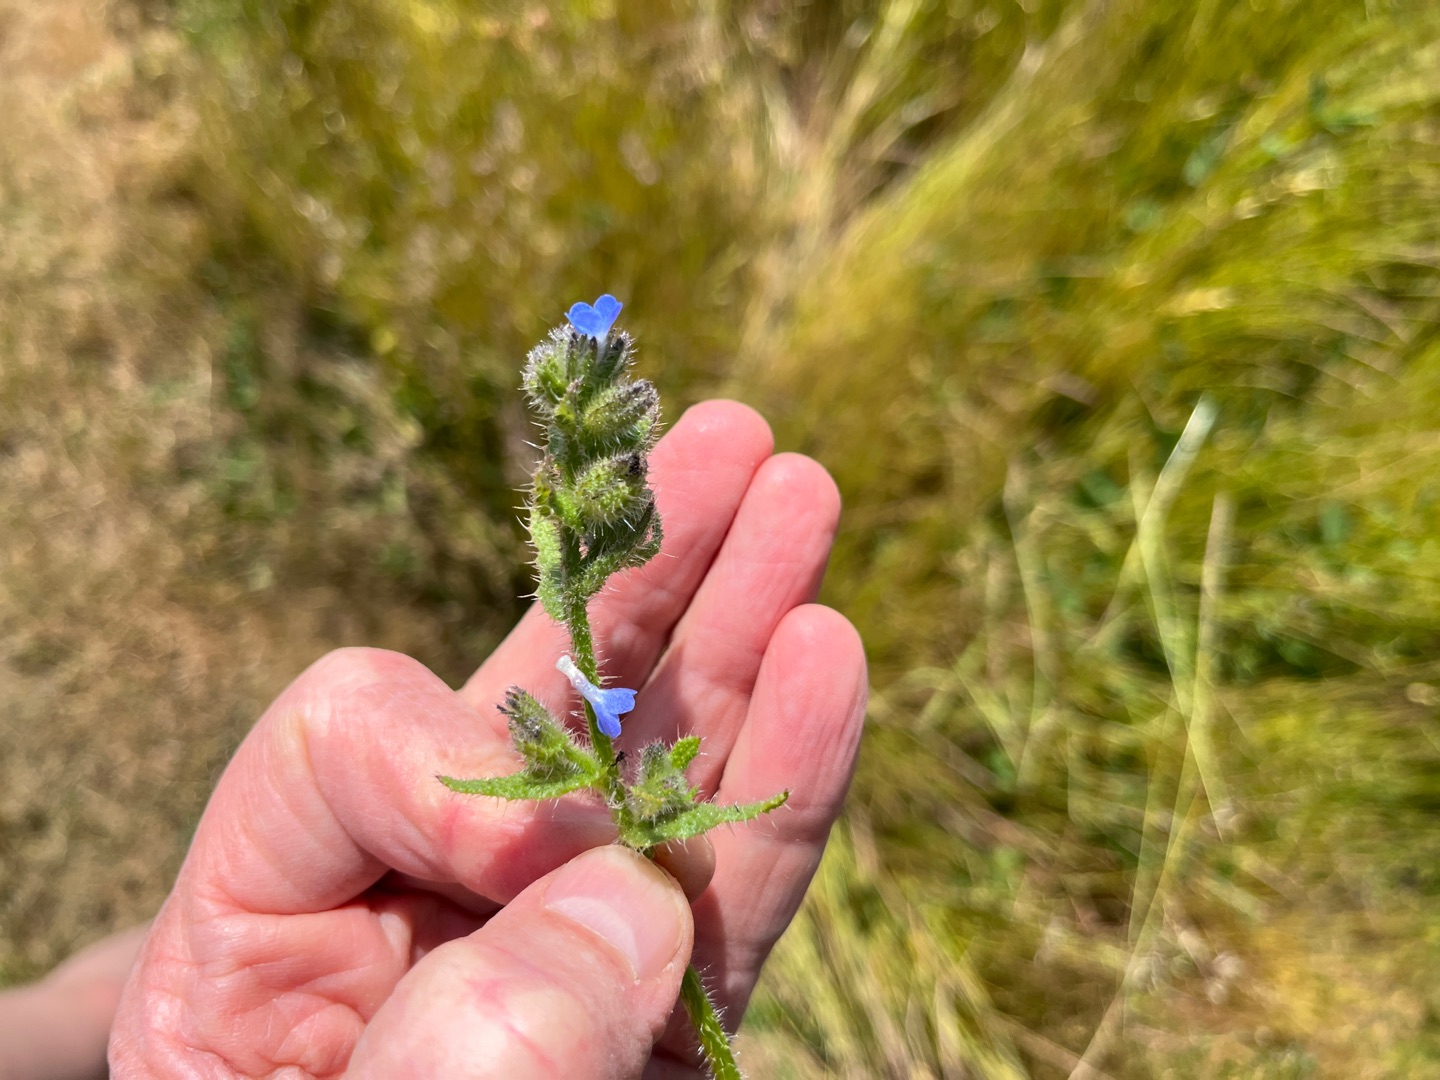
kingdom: Plantae
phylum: Tracheophyta
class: Magnoliopsida
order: Boraginales
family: Boraginaceae
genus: Lycopsis
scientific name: Lycopsis arvensis
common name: Krumhals
